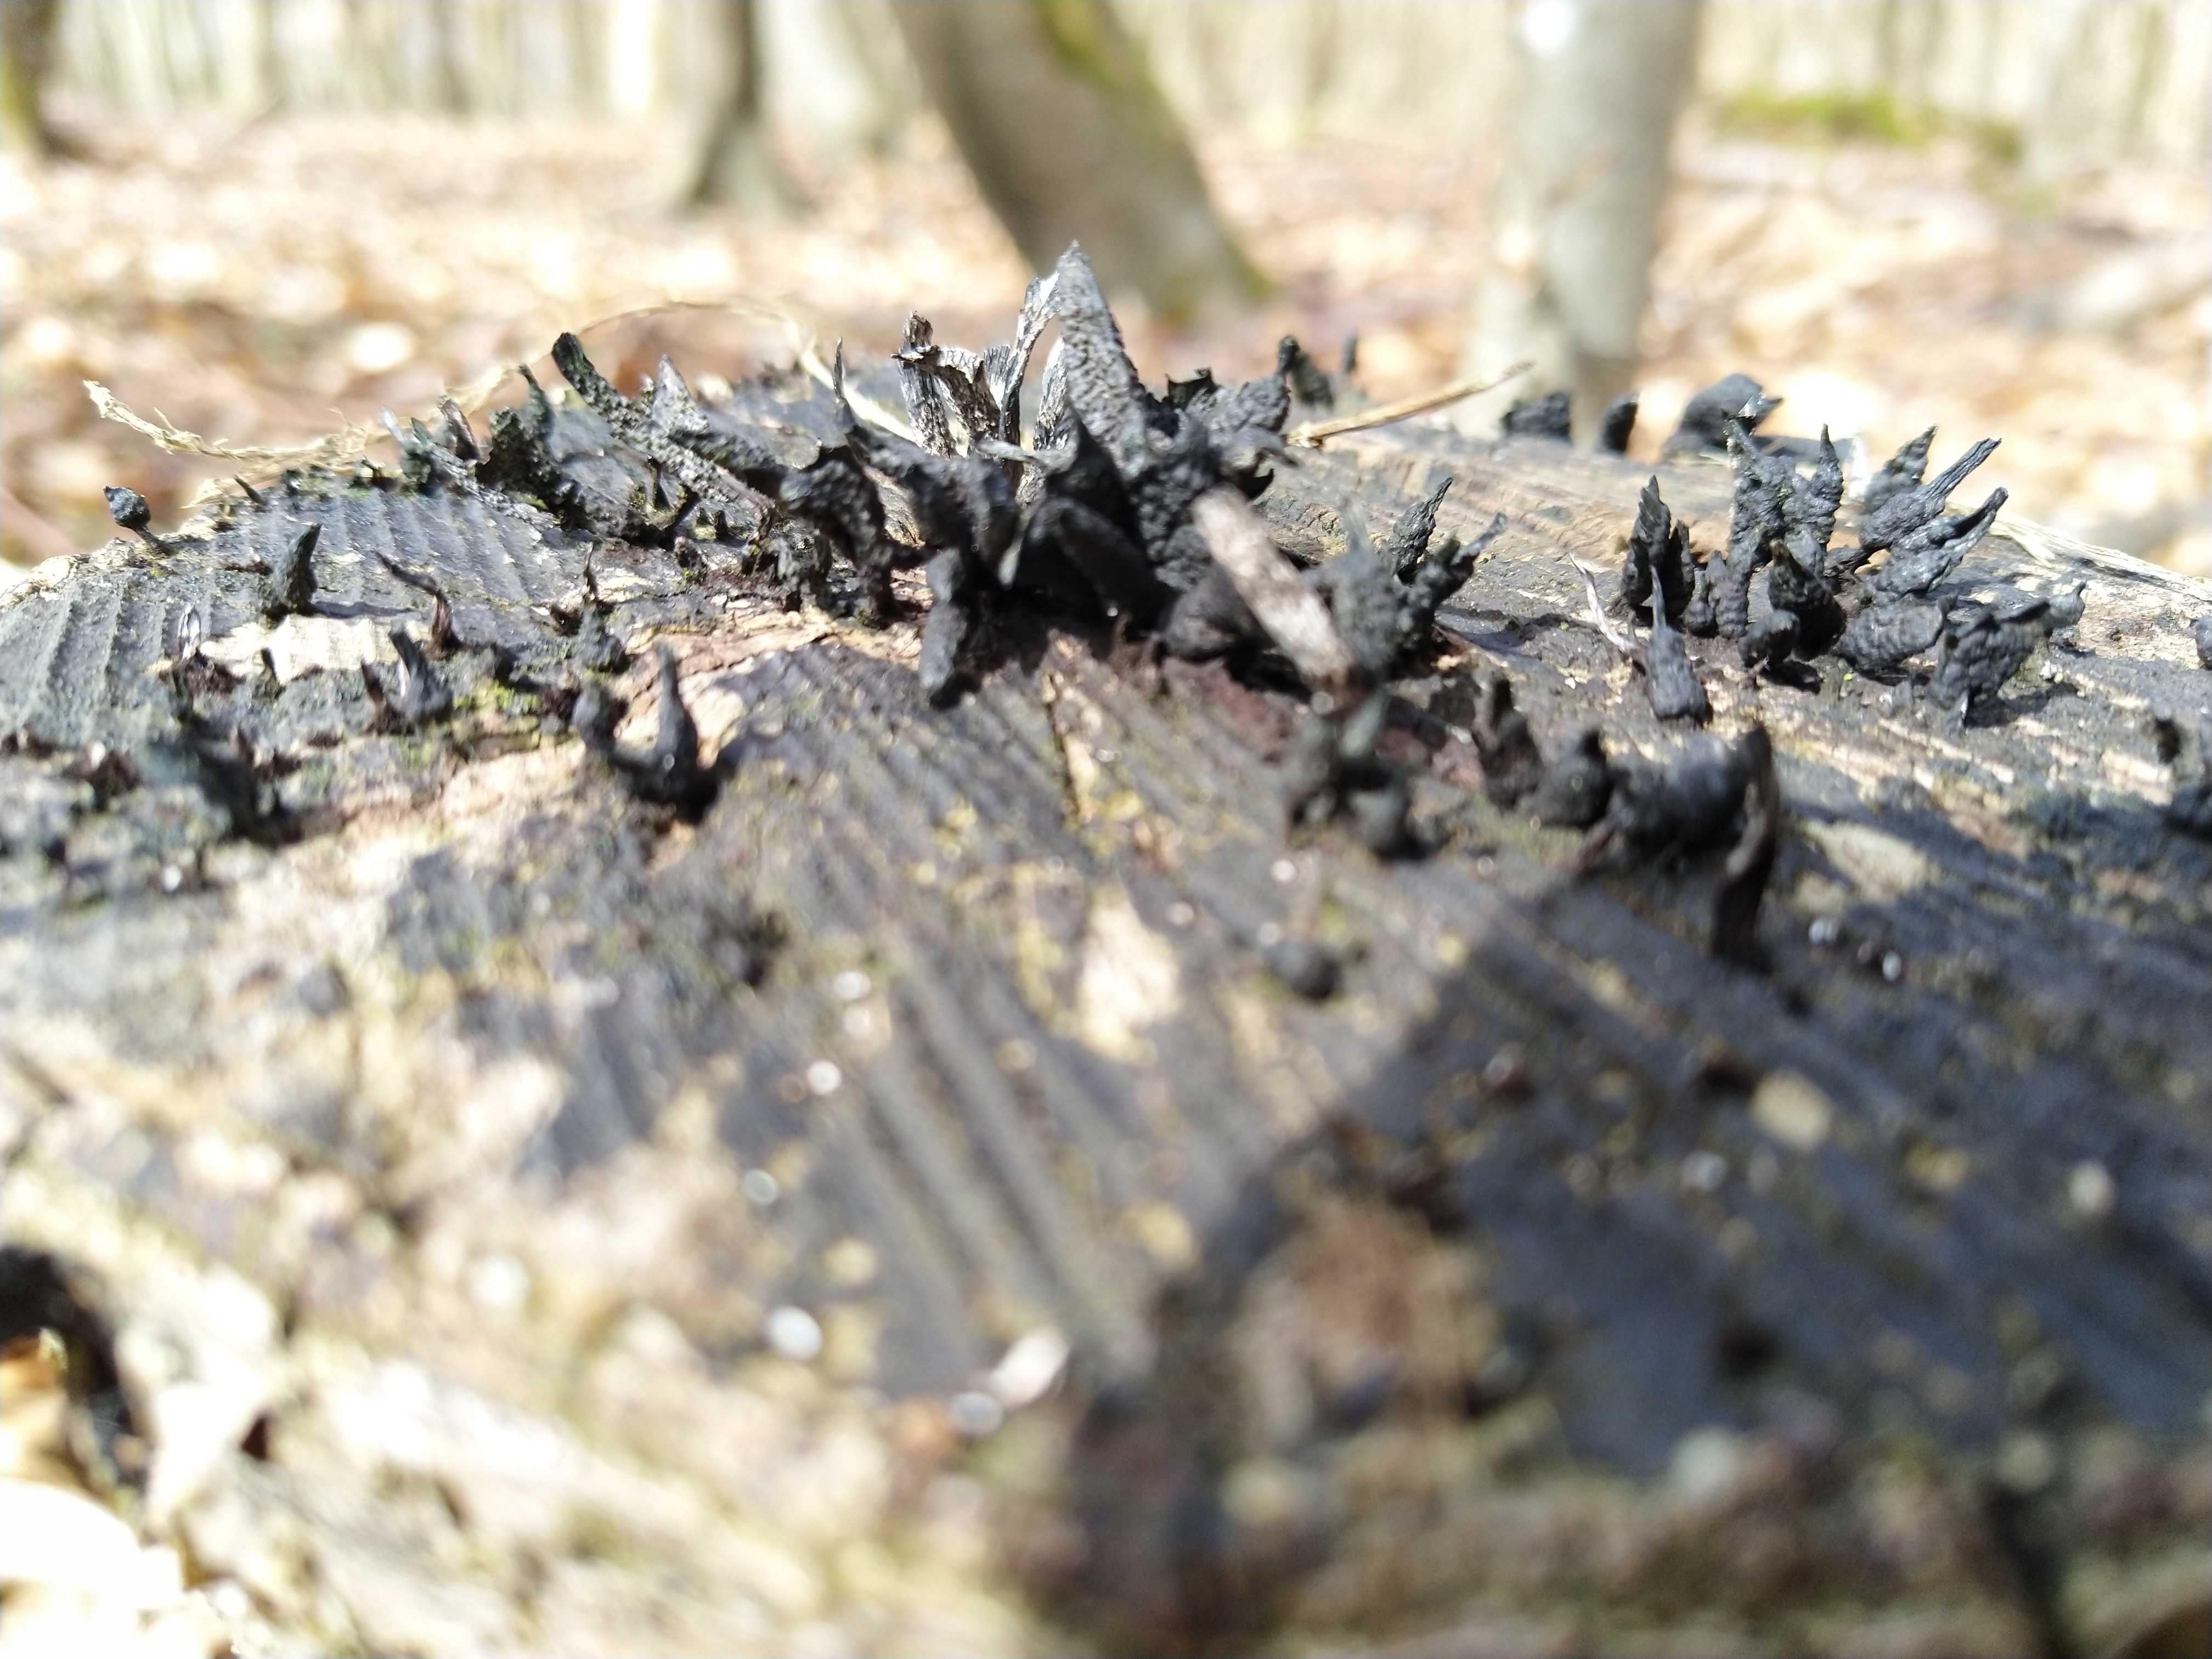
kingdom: Fungi
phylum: Ascomycota
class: Sordariomycetes
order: Xylariales
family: Xylariaceae
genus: Xylaria
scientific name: Xylaria hypoxylon
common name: grenet stødsvamp
